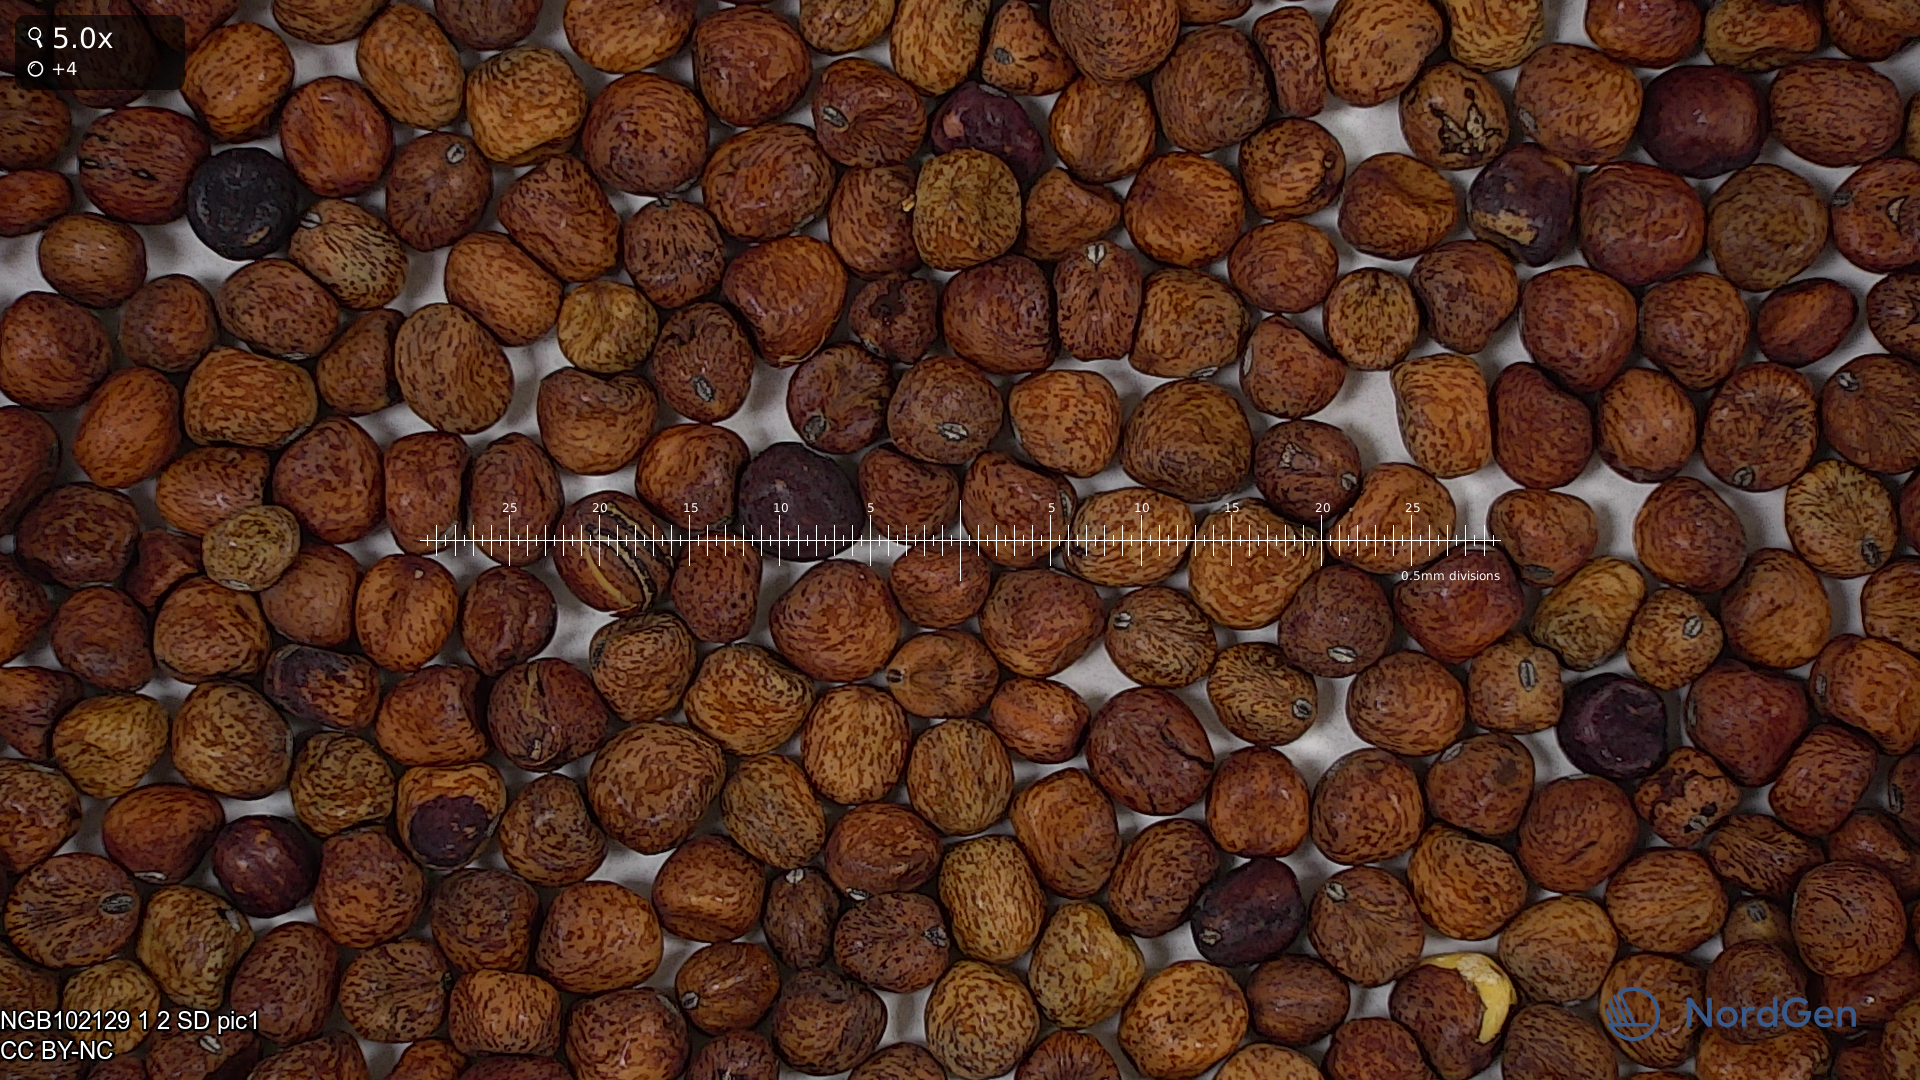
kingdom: Plantae
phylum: Tracheophyta
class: Magnoliopsida
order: Fabales
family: Fabaceae
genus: Lathyrus
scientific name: Lathyrus oleraceus
